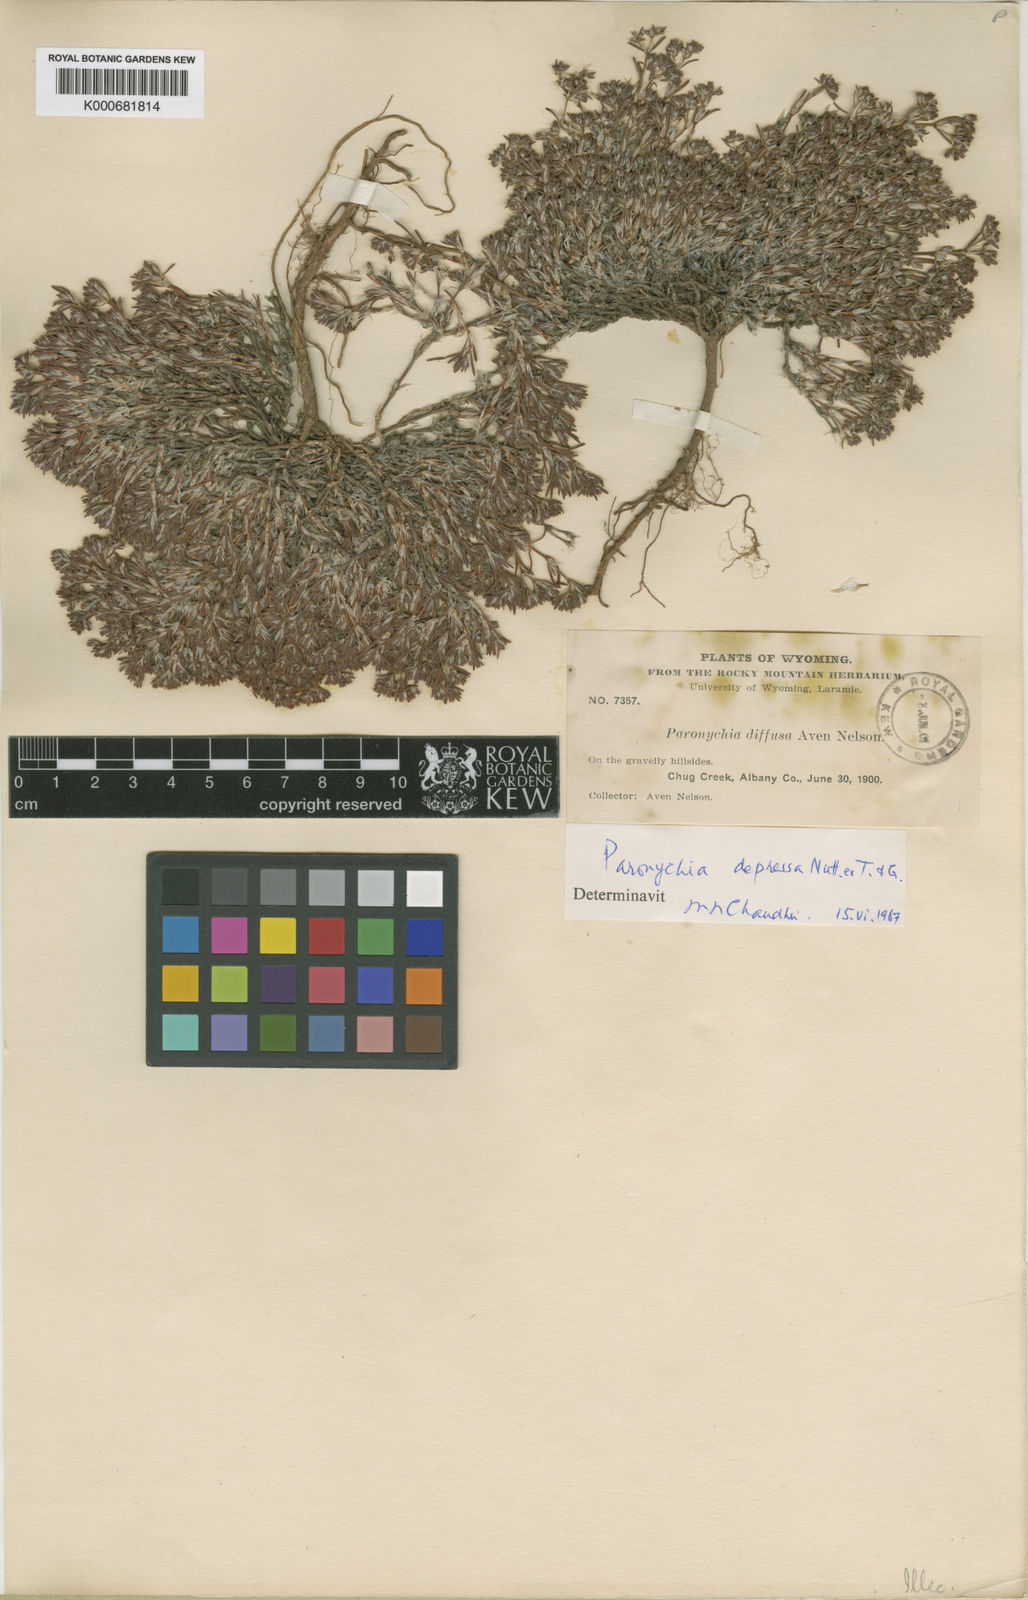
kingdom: Plantae
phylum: Tracheophyta
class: Magnoliopsida
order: Caryophyllales
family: Caryophyllaceae
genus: Paronychia
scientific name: Paronychia depressa
